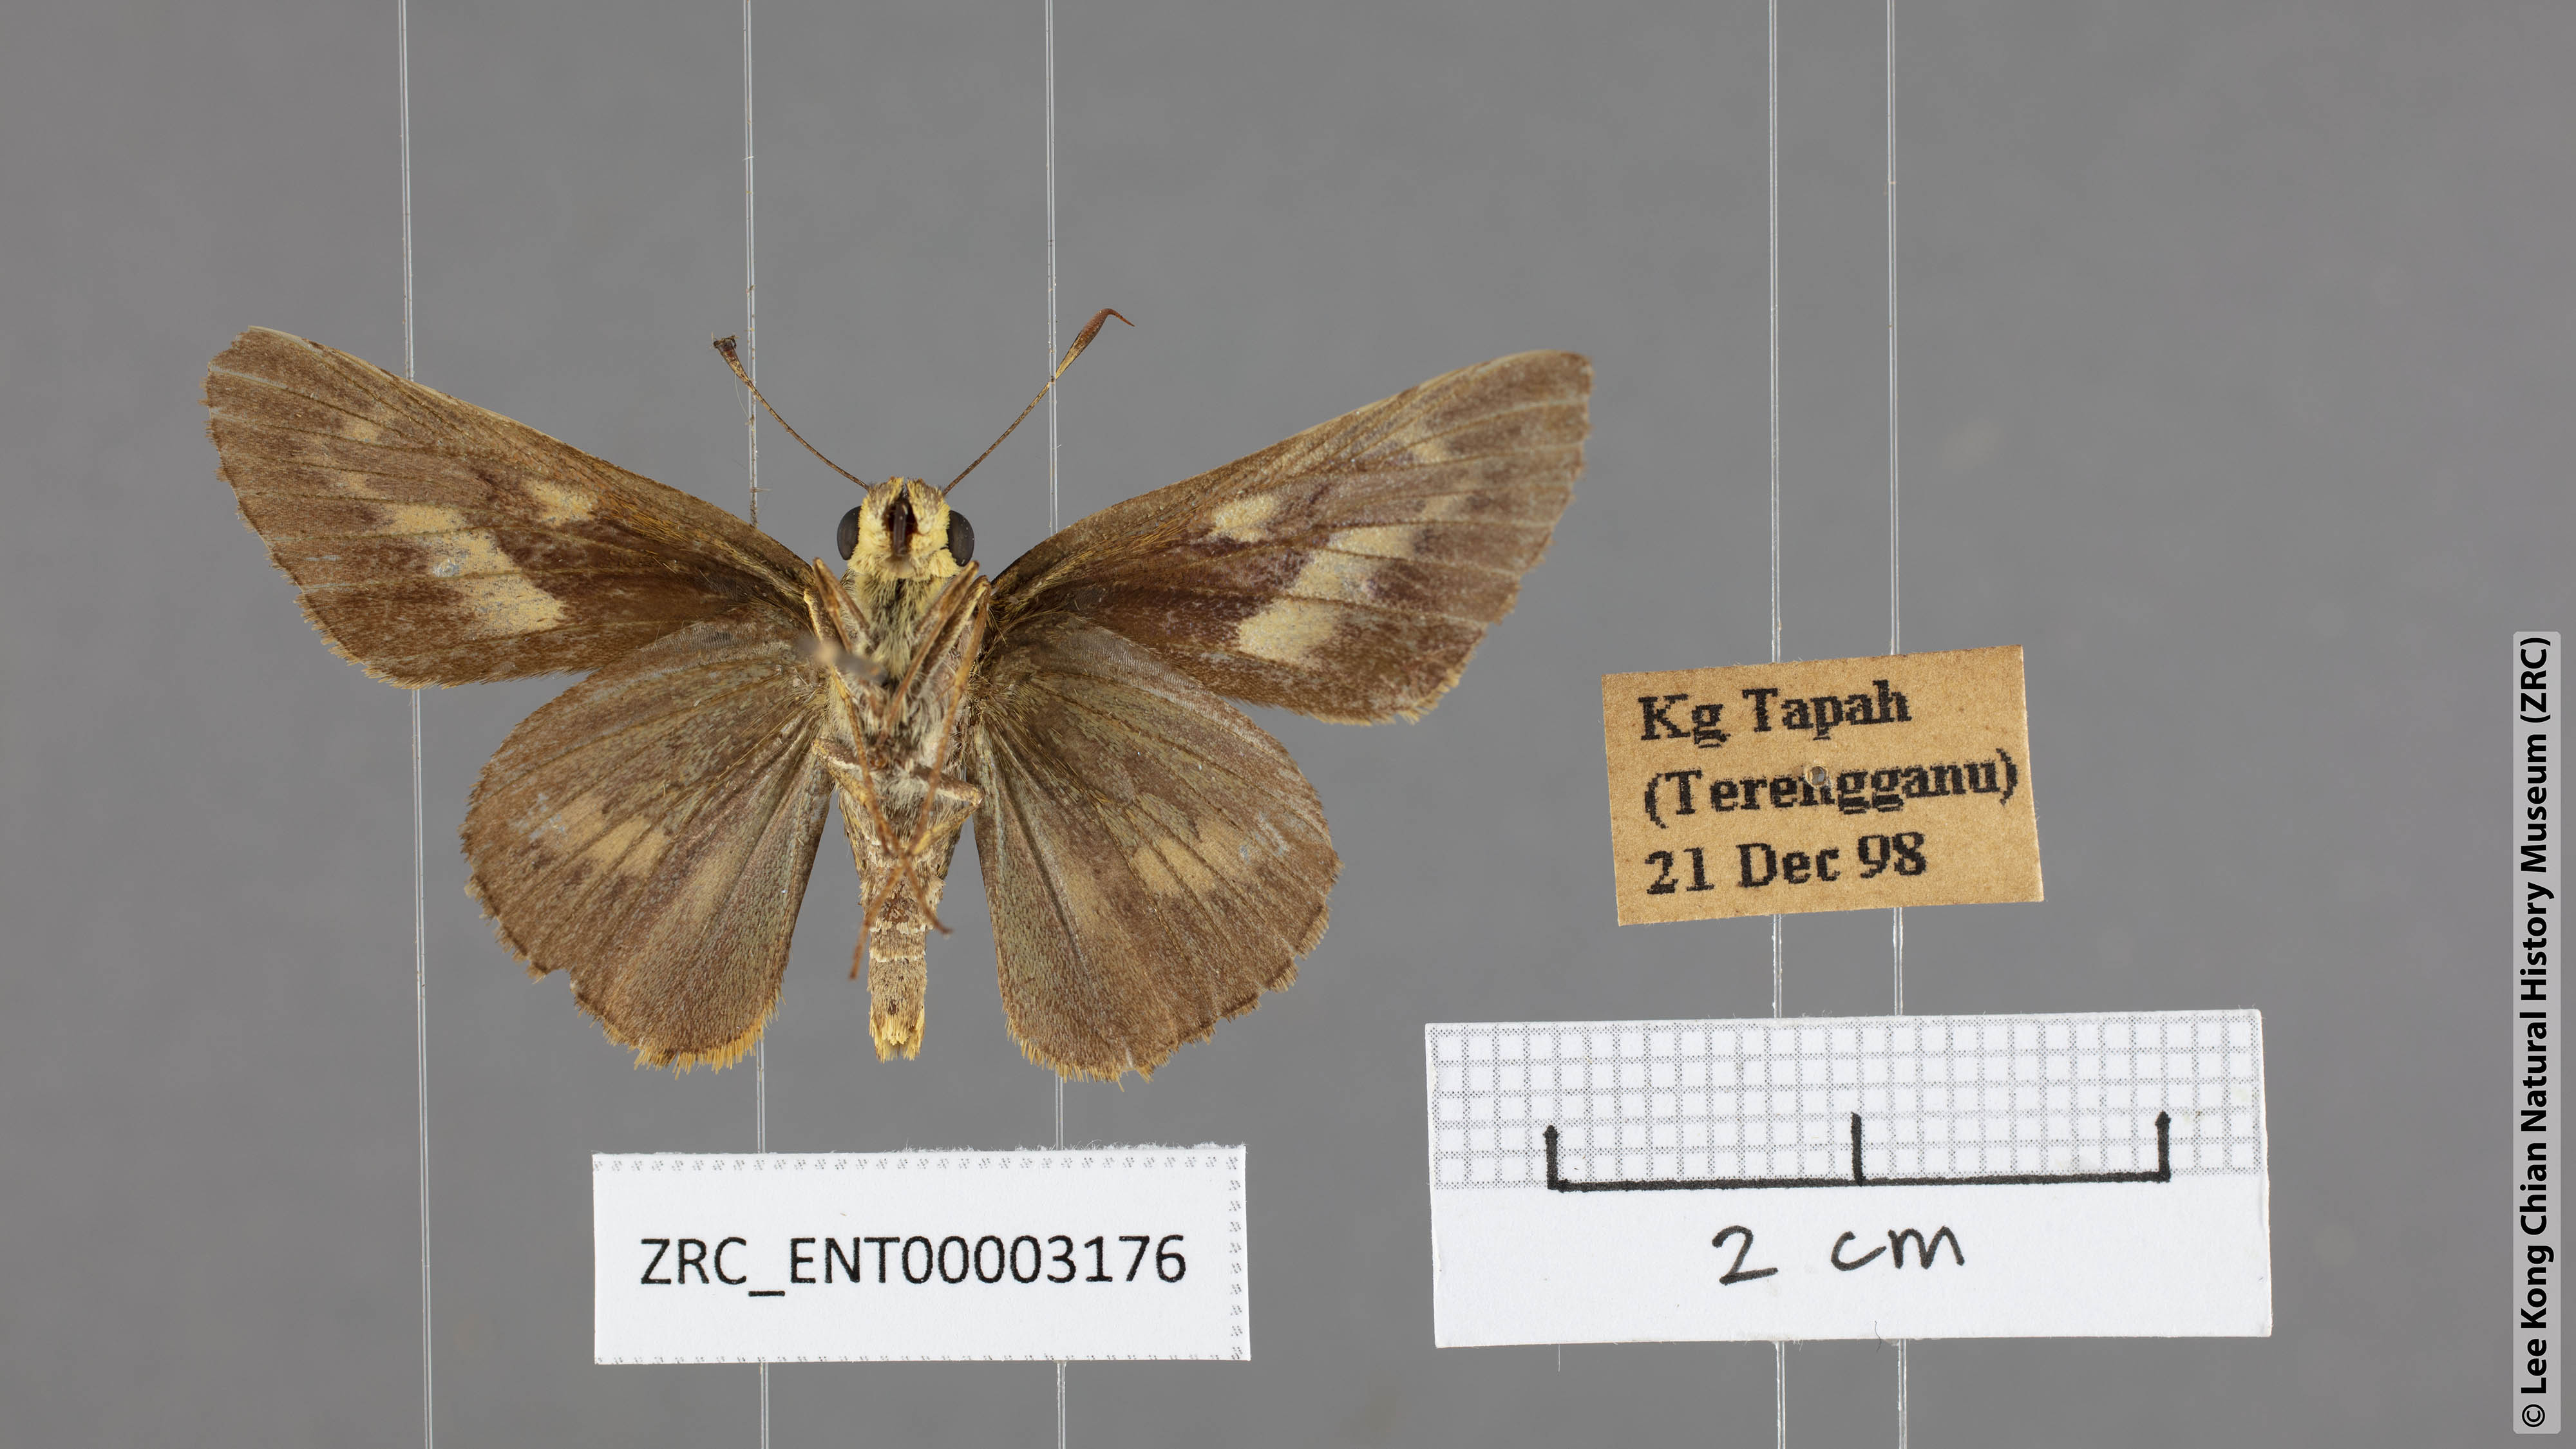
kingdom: Animalia
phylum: Arthropoda
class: Insecta
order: Lepidoptera
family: Hesperiidae
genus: Cephrenes
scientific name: Cephrenes
